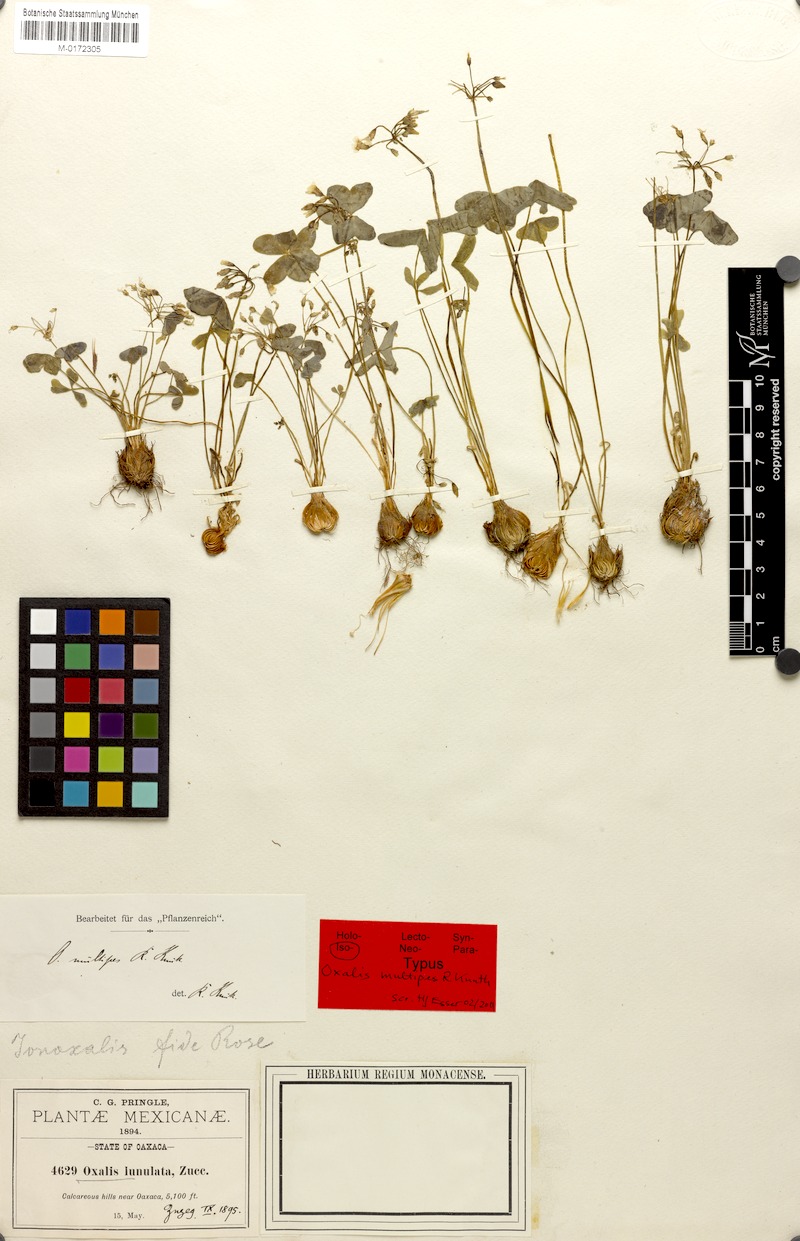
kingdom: Plantae
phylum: Tracheophyta
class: Magnoliopsida
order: Oxalidales
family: Oxalidaceae
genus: Oxalis
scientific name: Oxalis latifolia
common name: Garden pink-sorrel
